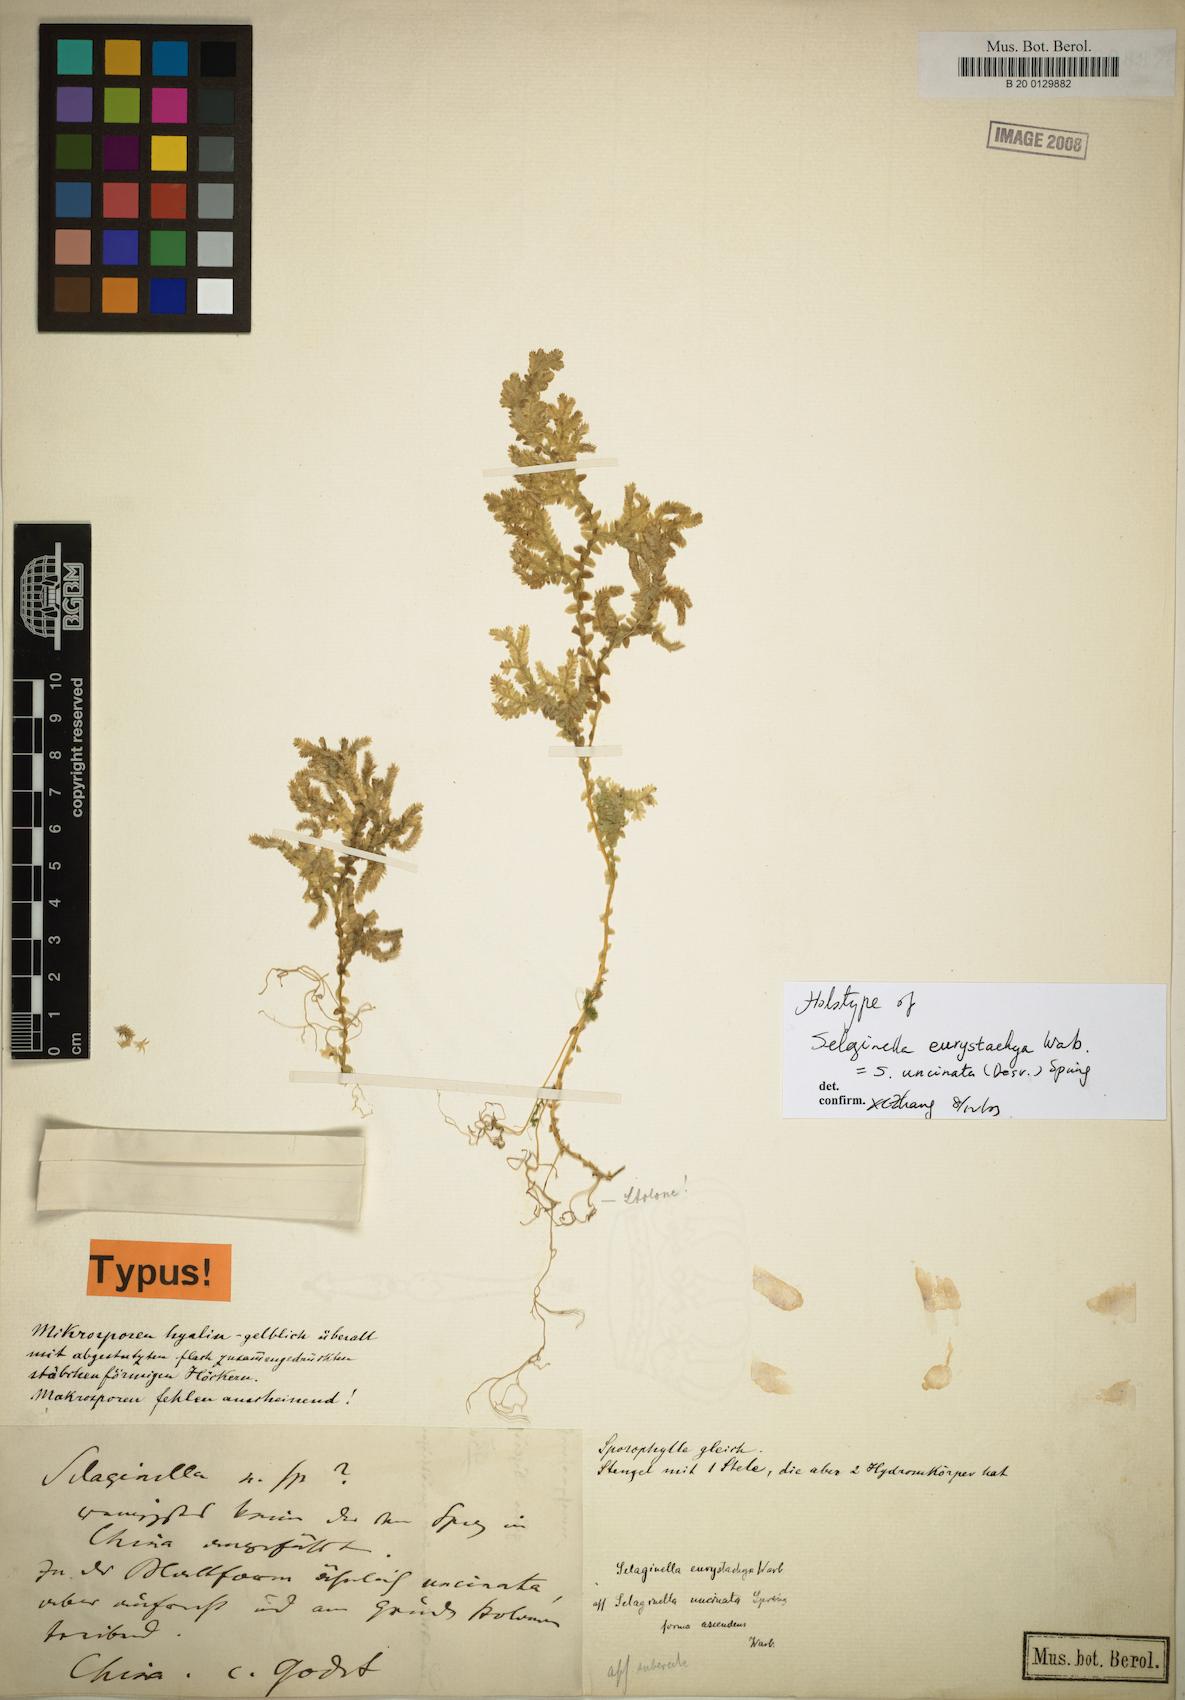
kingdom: Plantae
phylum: Tracheophyta
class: Lycopodiopsida
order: Selaginellales
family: Selaginellaceae
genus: Selaginella
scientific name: Selaginella uncinata
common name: Blue spikemoss
